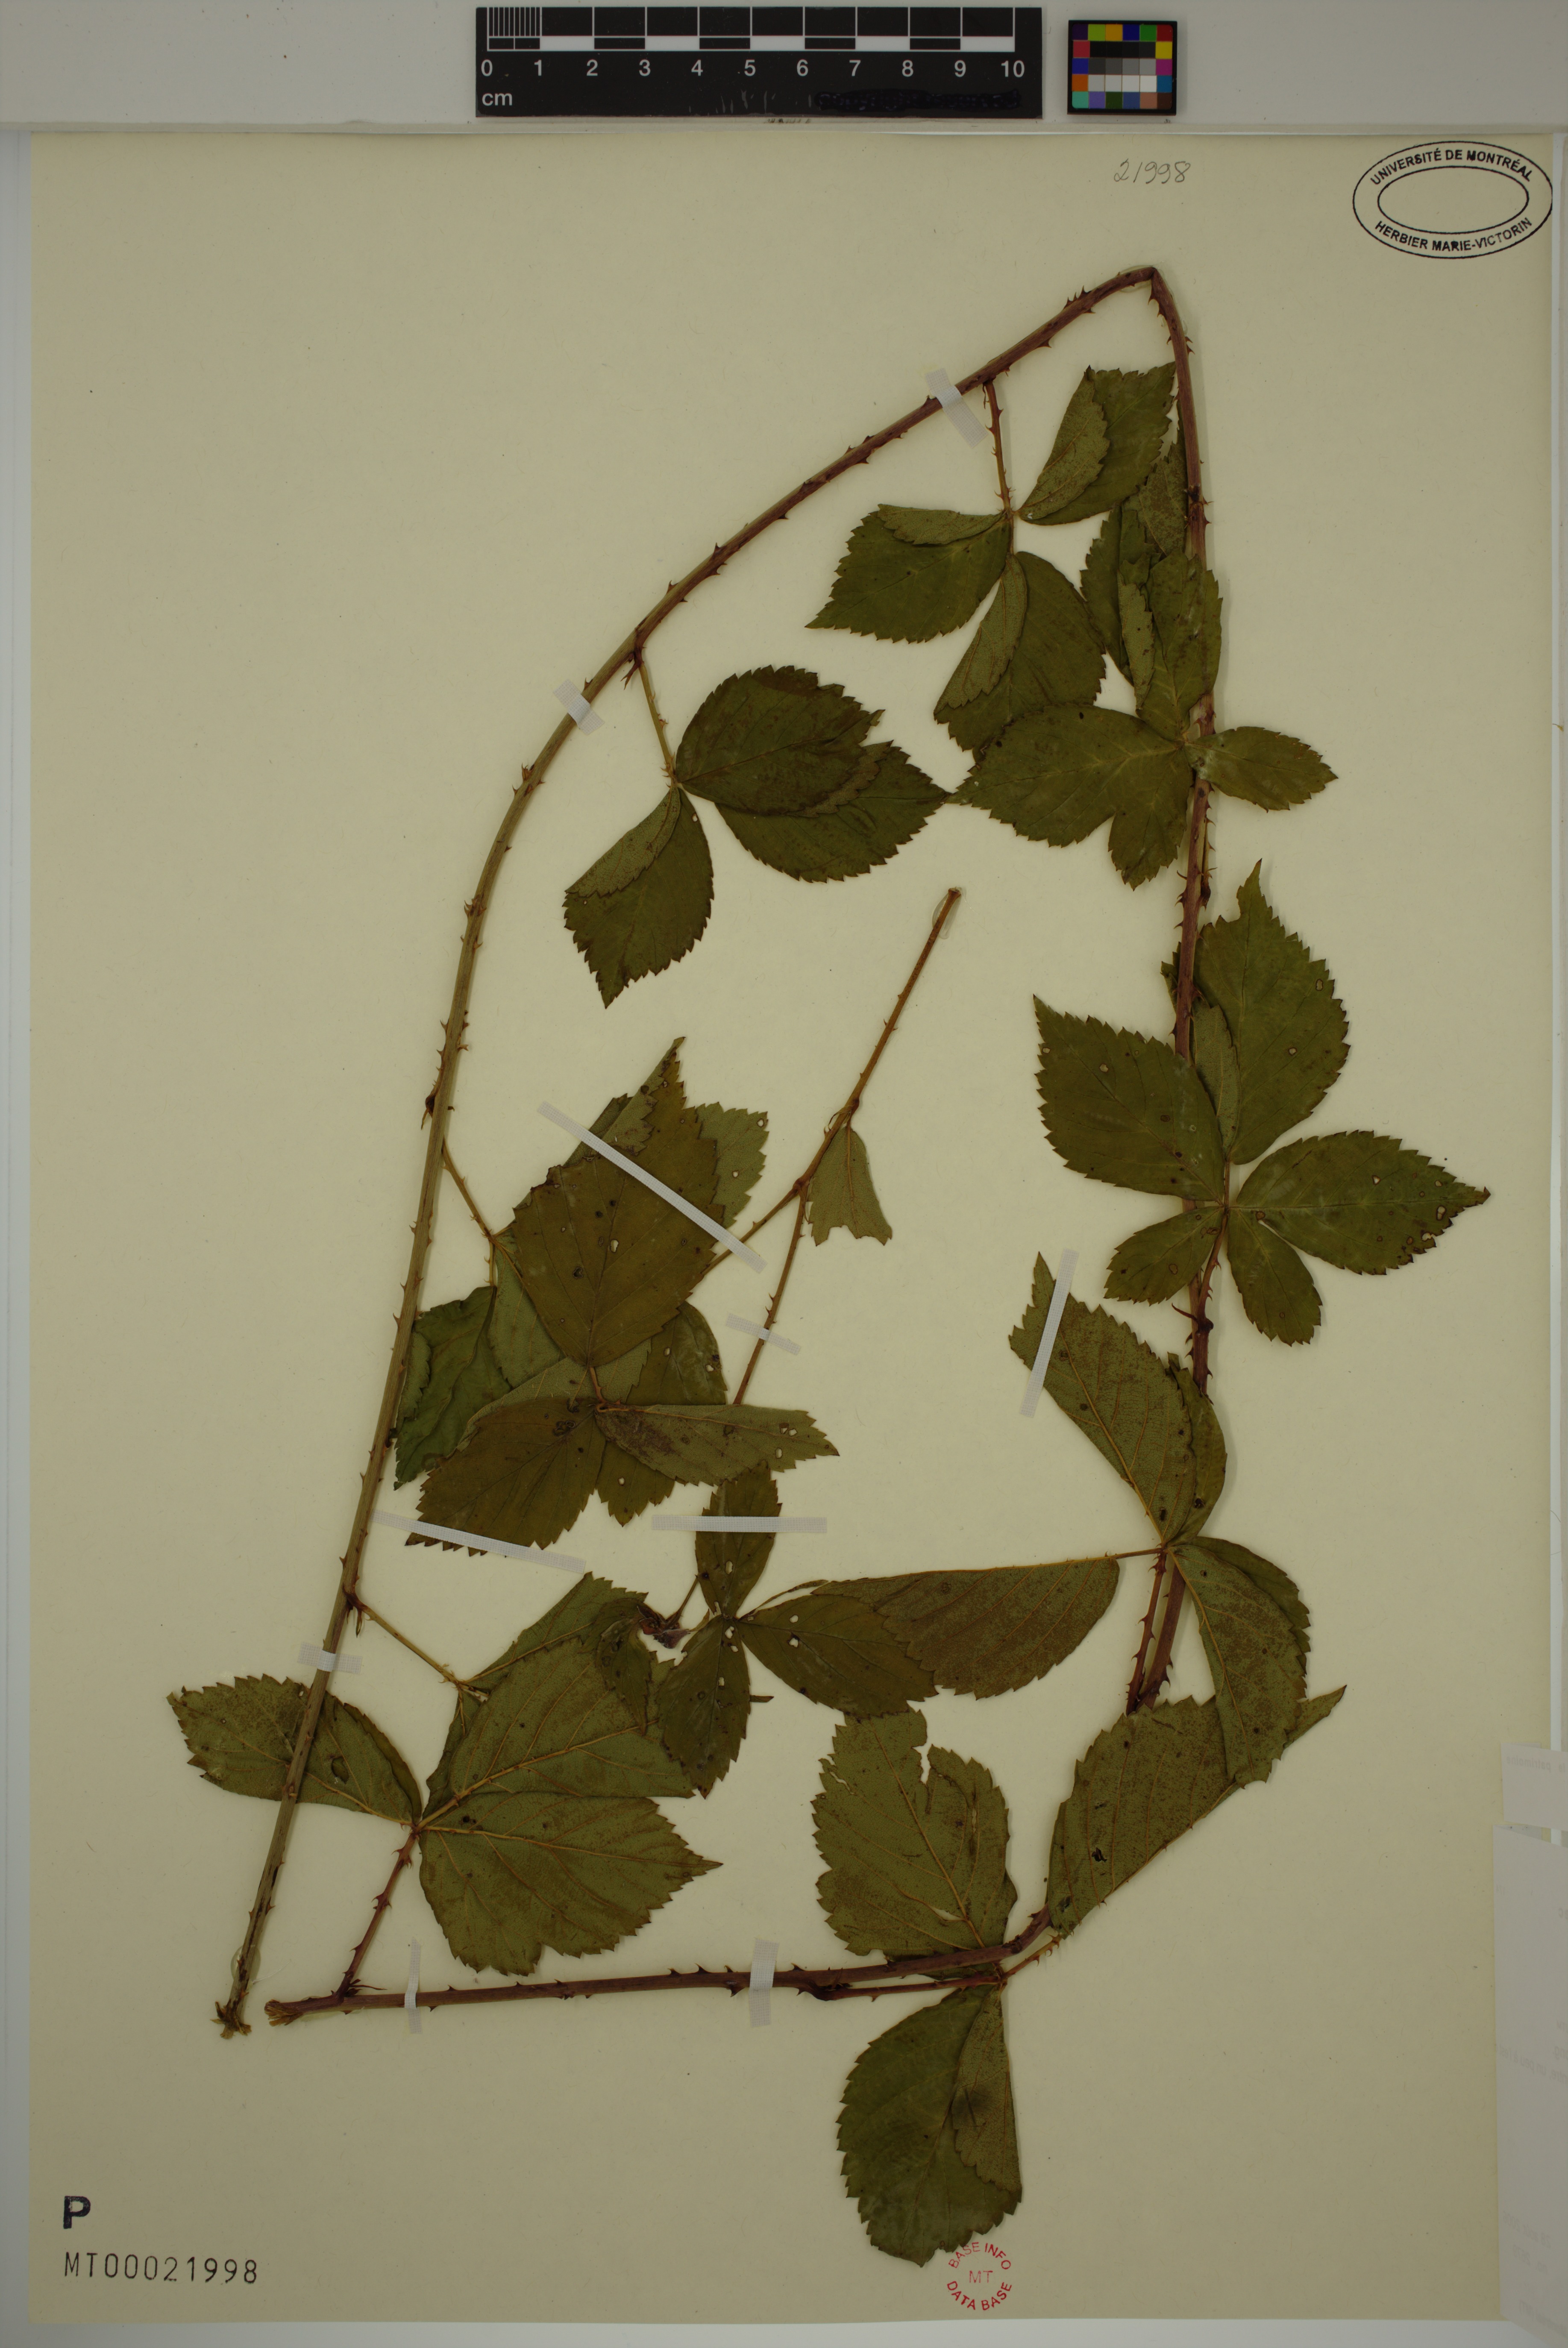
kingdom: Plantae
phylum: Tracheophyta
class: Magnoliopsida
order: Rosales
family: Rosaceae
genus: Rubus
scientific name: Rubus flagellaris
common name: American dewberry
